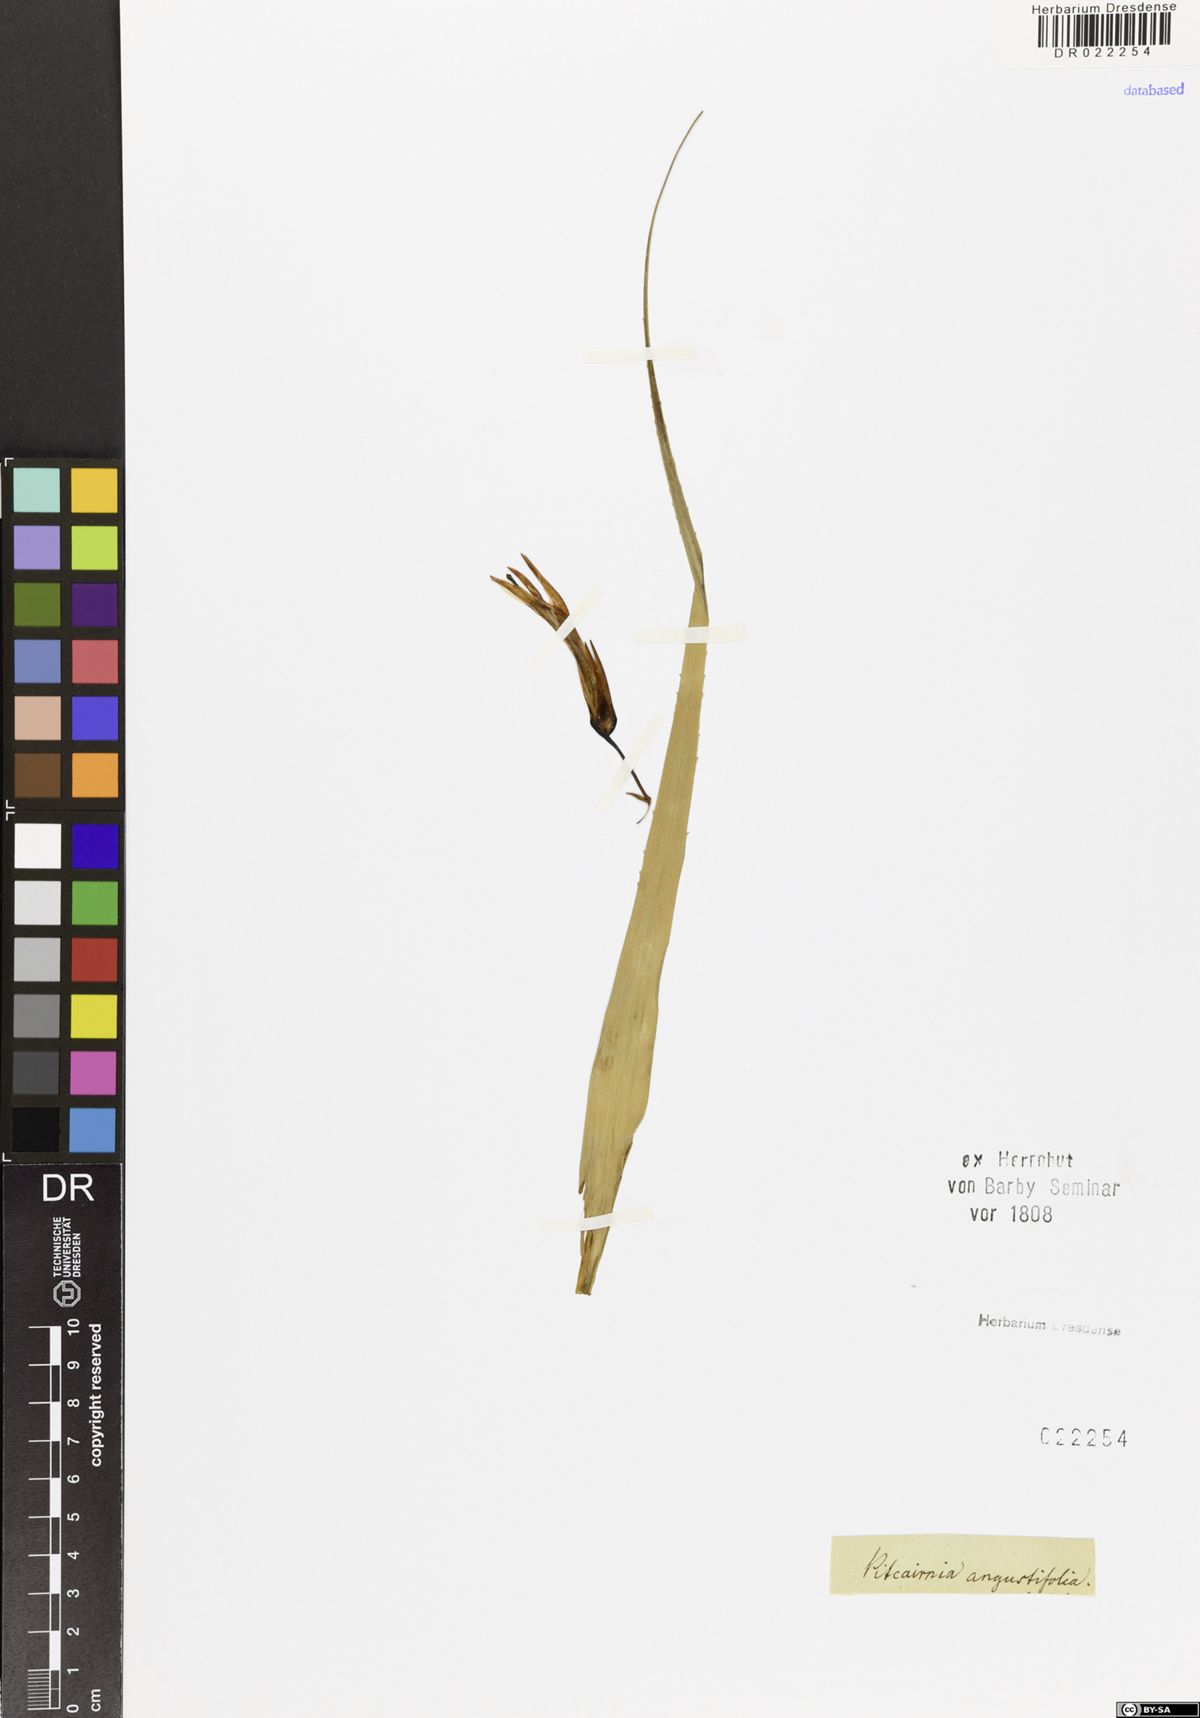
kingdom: Plantae
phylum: Tracheophyta
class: Liliopsida
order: Poales
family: Bromeliaceae
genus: Pitcairnia
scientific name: Pitcairnia angustifolia
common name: Clapper
